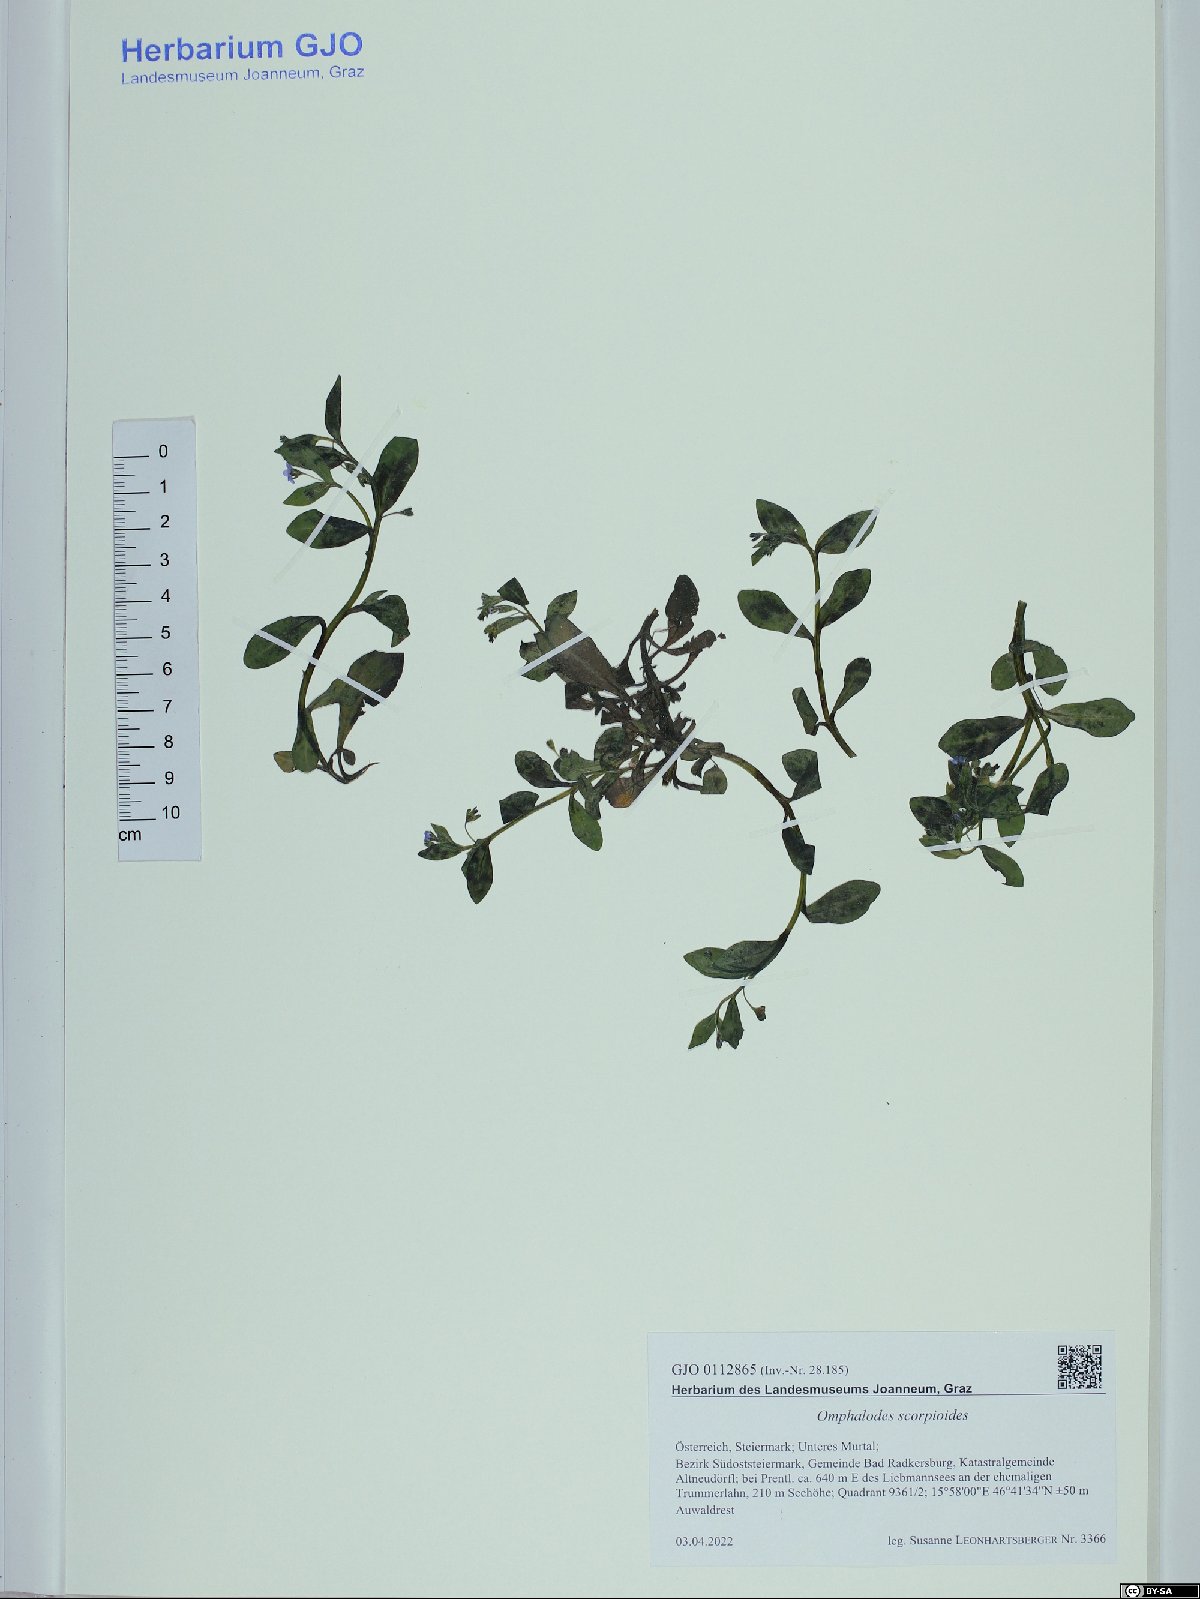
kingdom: Plantae
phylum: Tracheophyta
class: Magnoliopsida
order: Boraginales
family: Boraginaceae
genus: Memoremea
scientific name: Memoremea scorpioides
